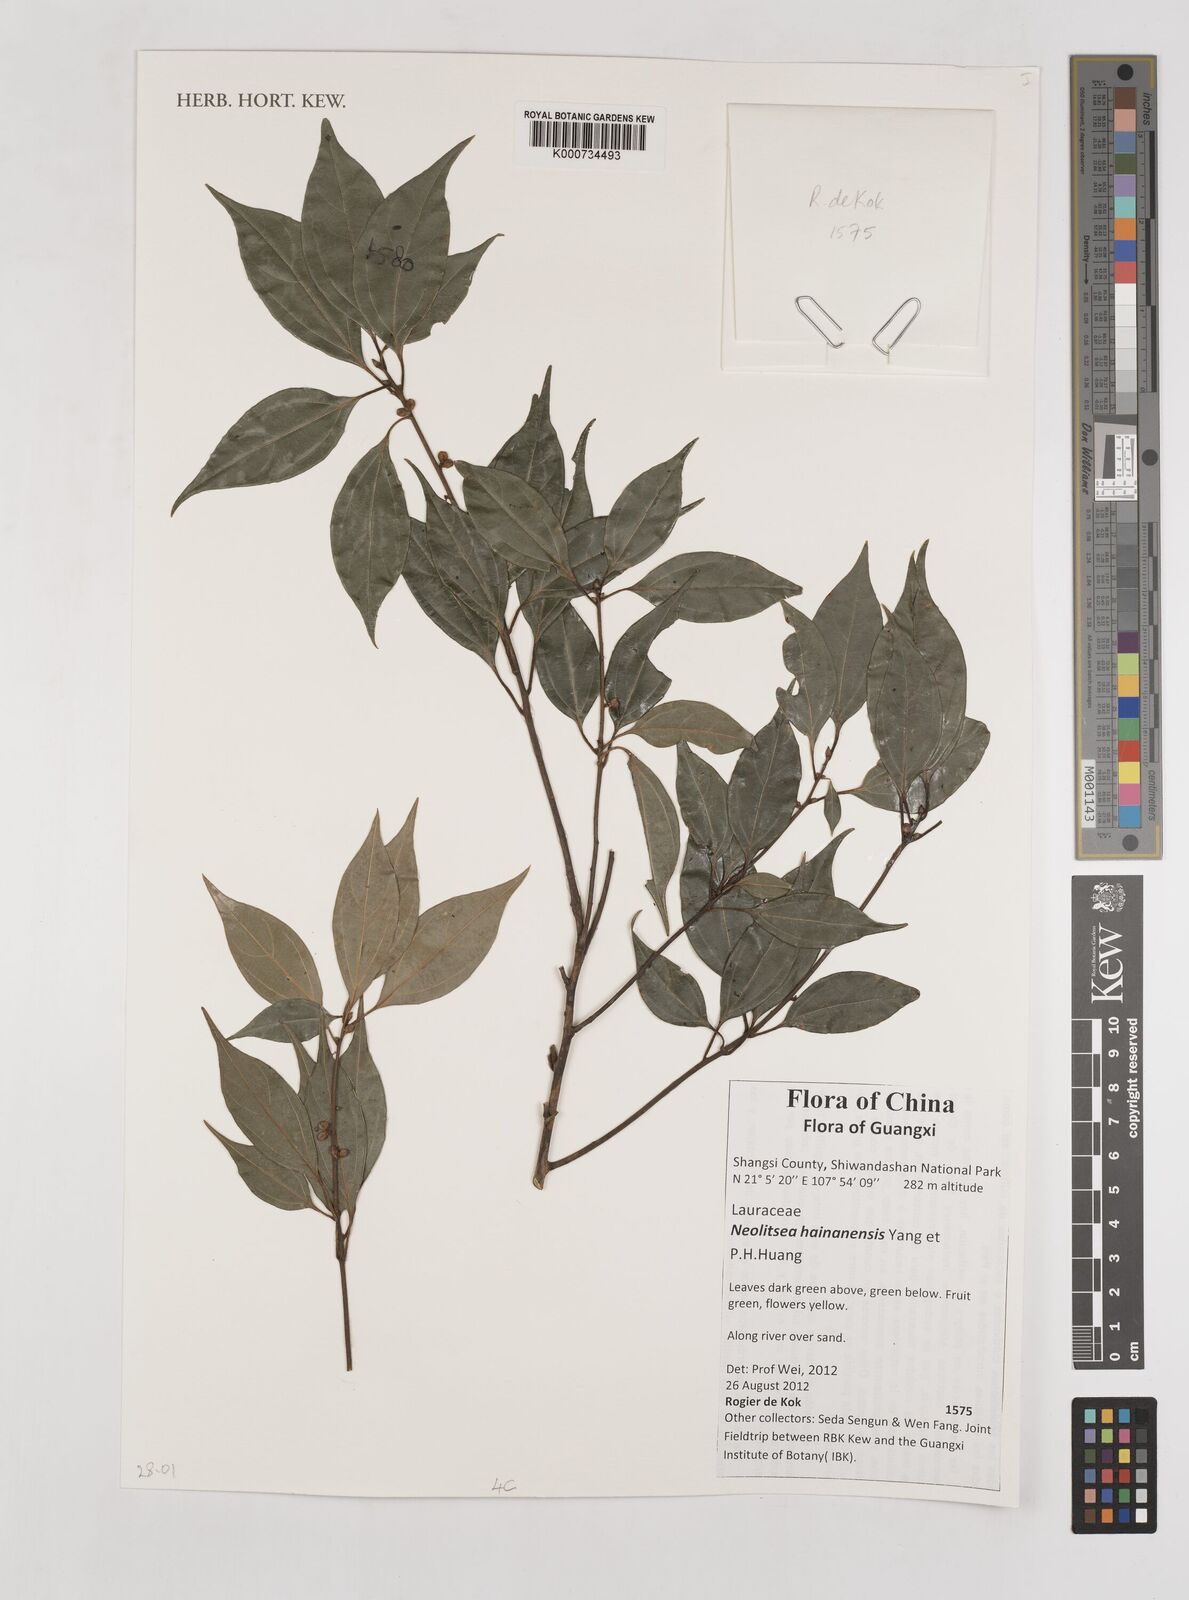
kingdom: Plantae
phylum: Tracheophyta
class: Magnoliopsida
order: Laurales
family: Lauraceae
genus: Neolitsea
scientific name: Neolitsea hainanensis
